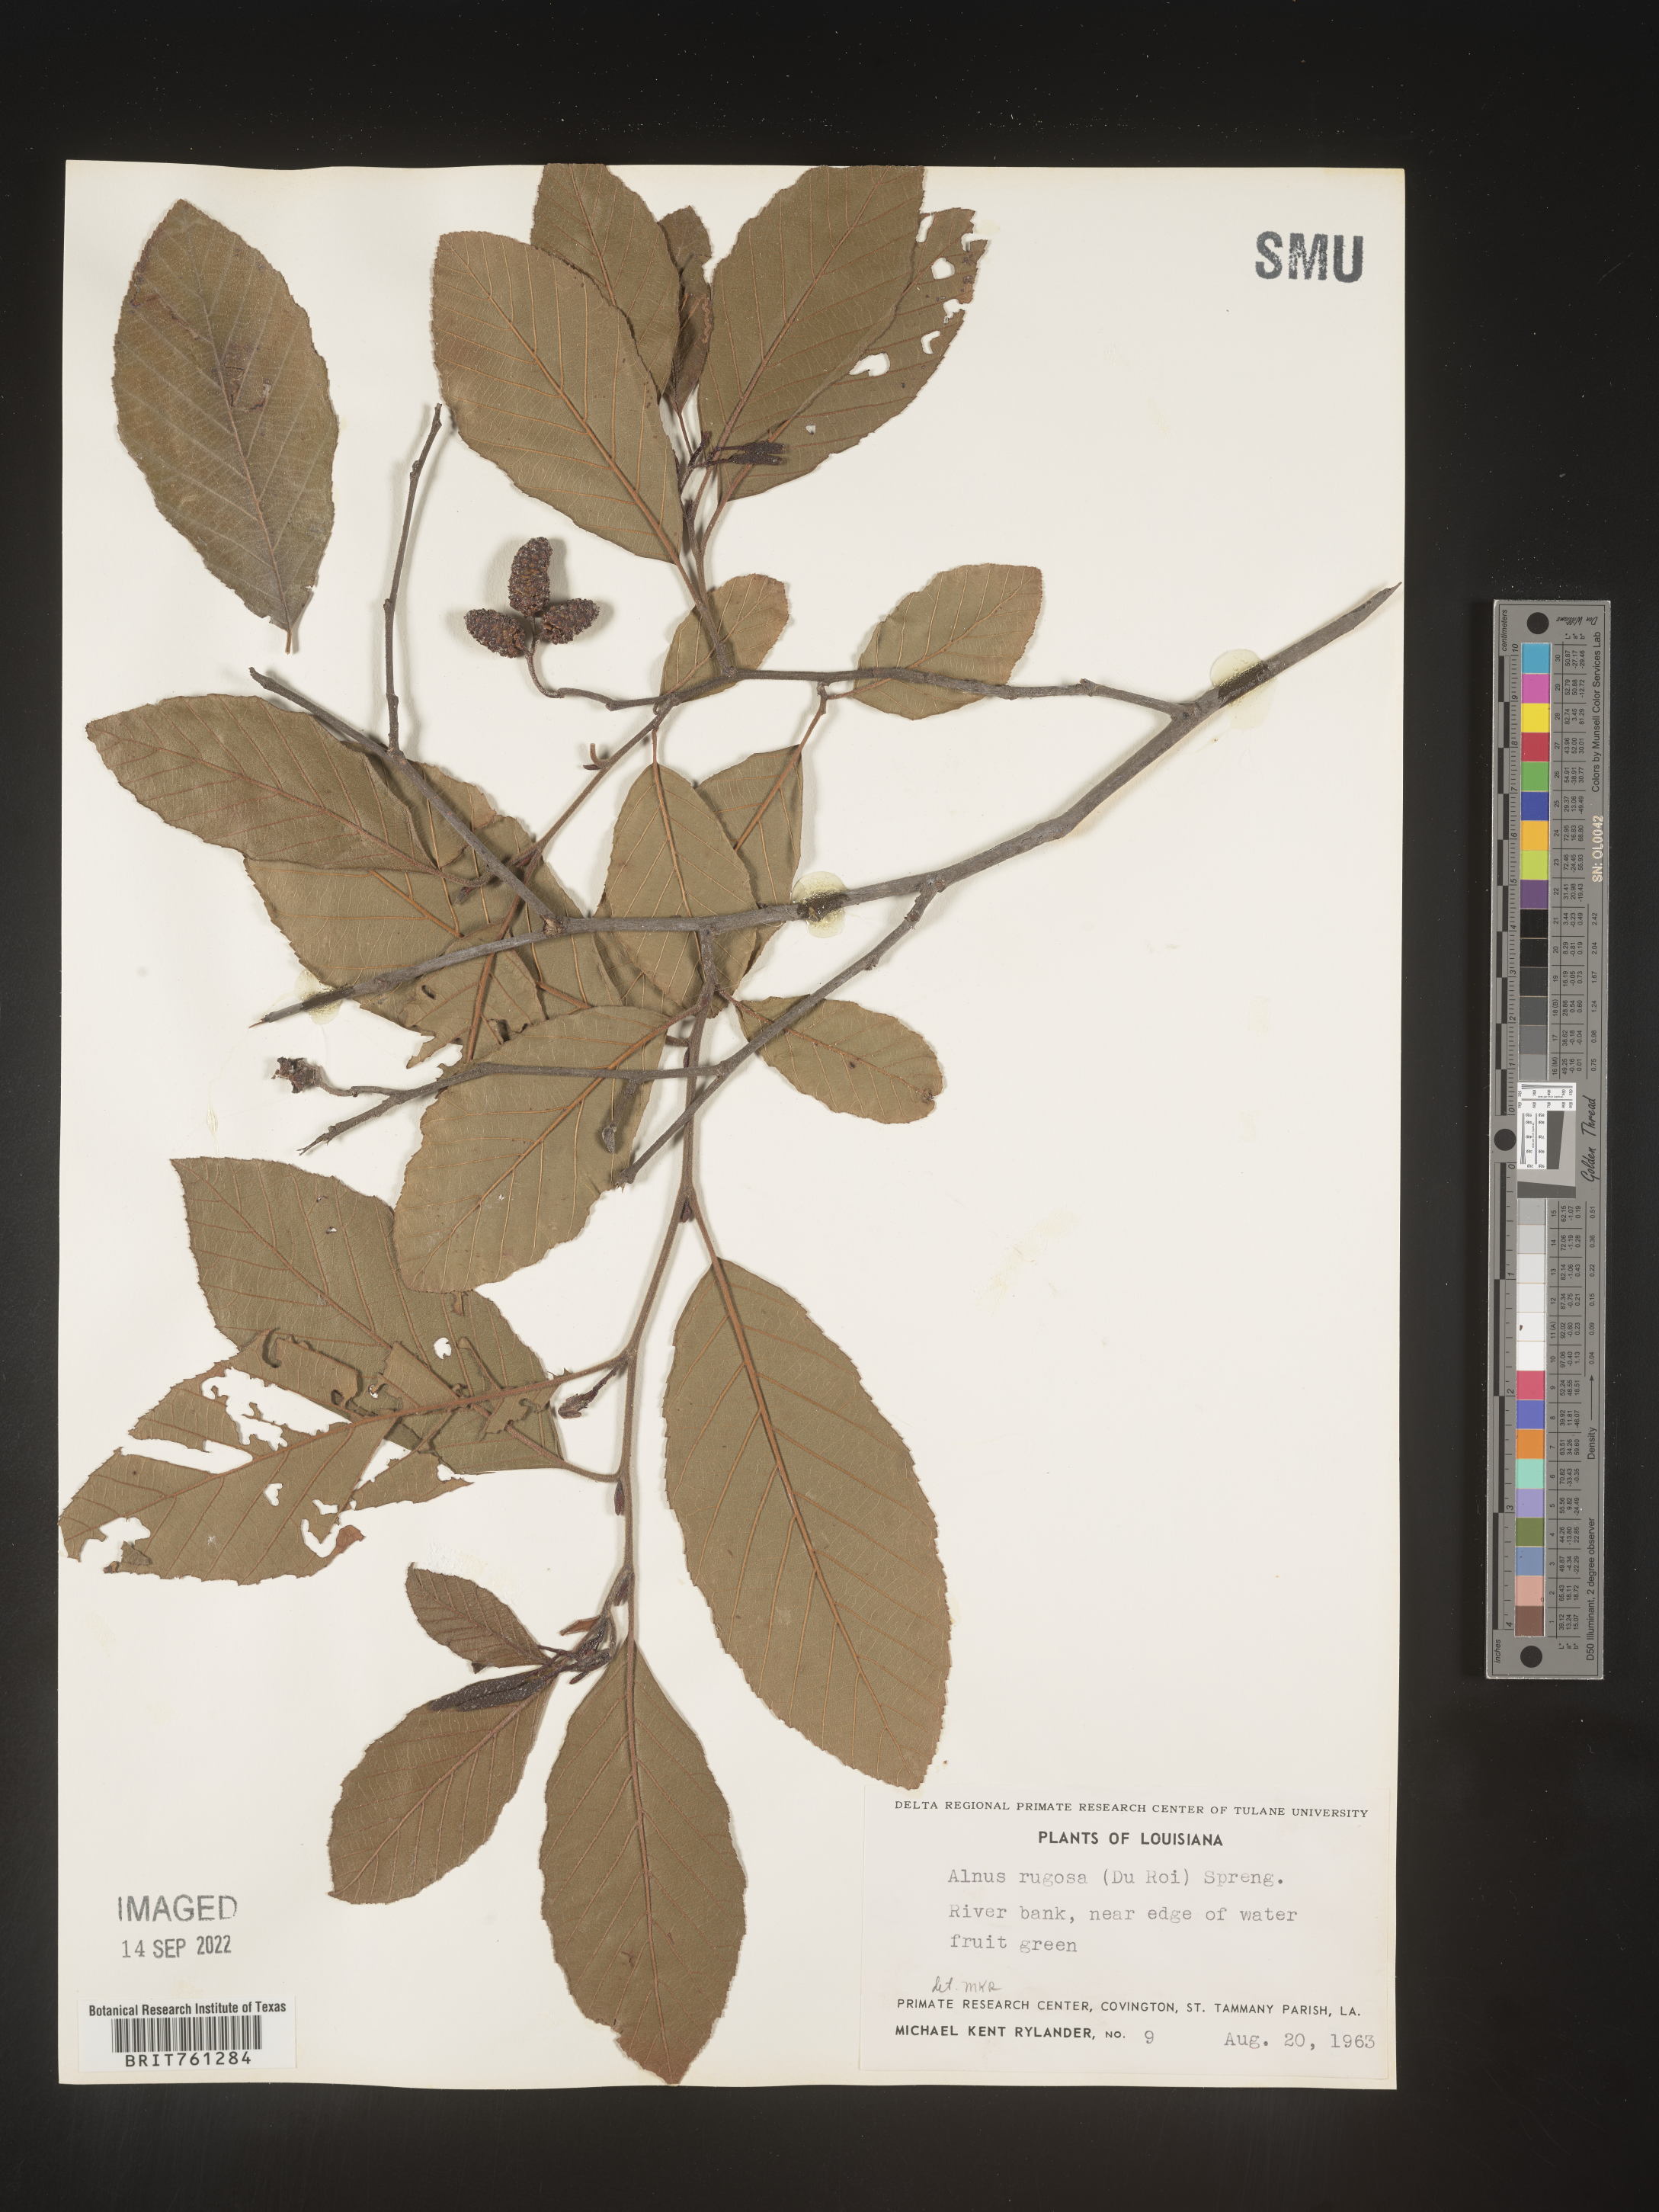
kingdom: Plantae
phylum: Tracheophyta
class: Magnoliopsida
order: Fagales
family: Betulaceae
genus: Alnus
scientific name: Alnus incana
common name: Grey alder
